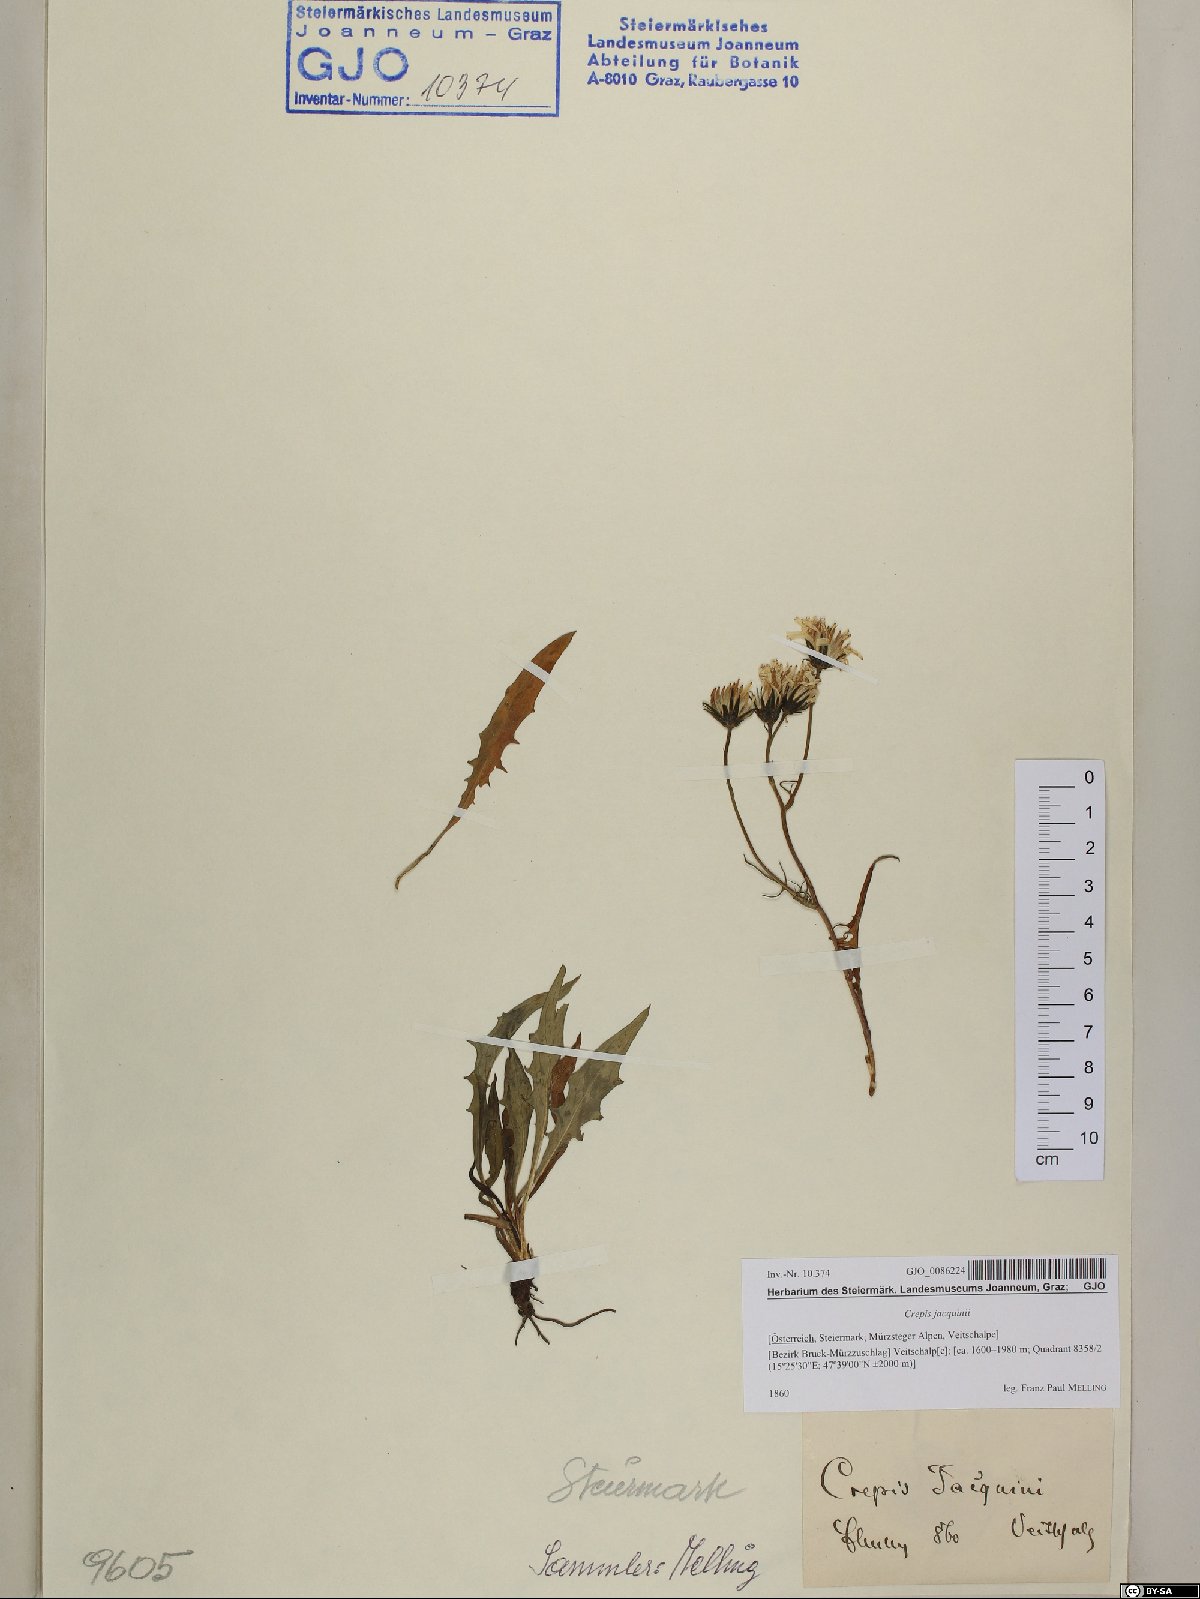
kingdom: Plantae
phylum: Tracheophyta
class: Magnoliopsida
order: Asterales
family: Asteraceae
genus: Crepis
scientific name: Crepis jacquinii
